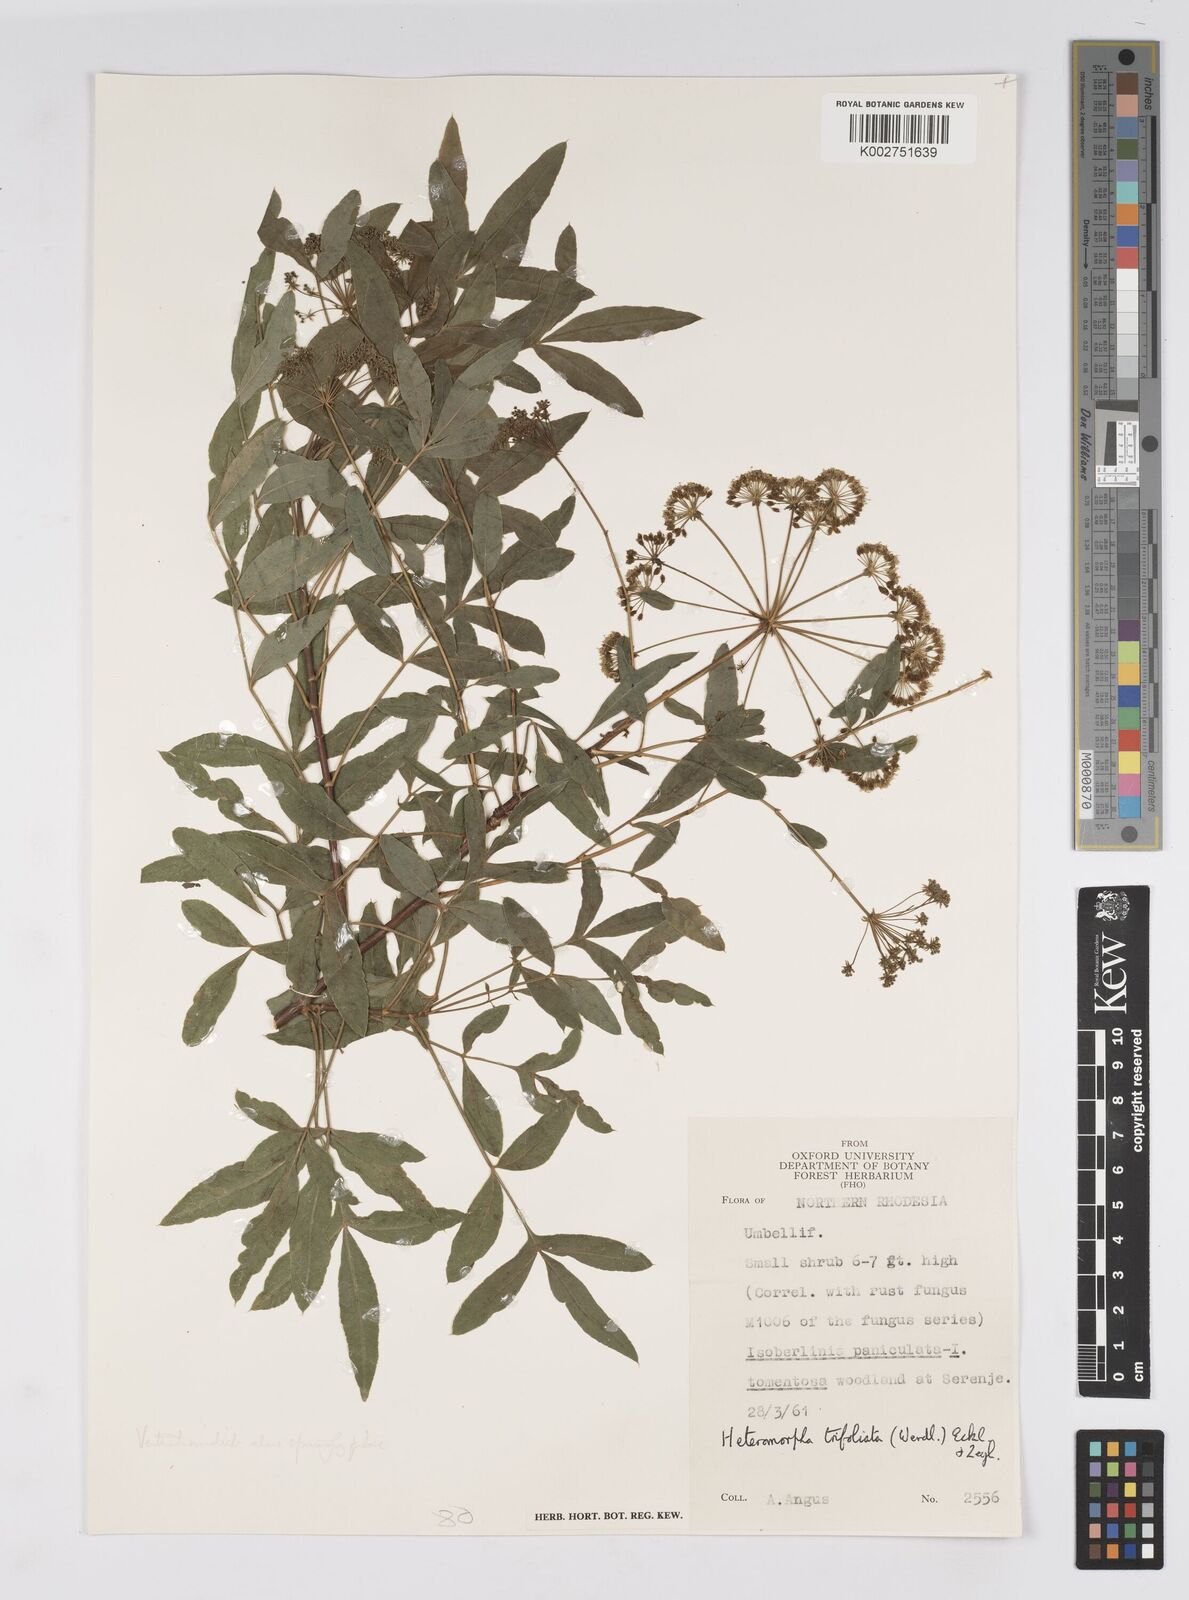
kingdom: Plantae
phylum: Tracheophyta
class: Magnoliopsida
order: Apiales
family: Apiaceae
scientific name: Apiaceae
